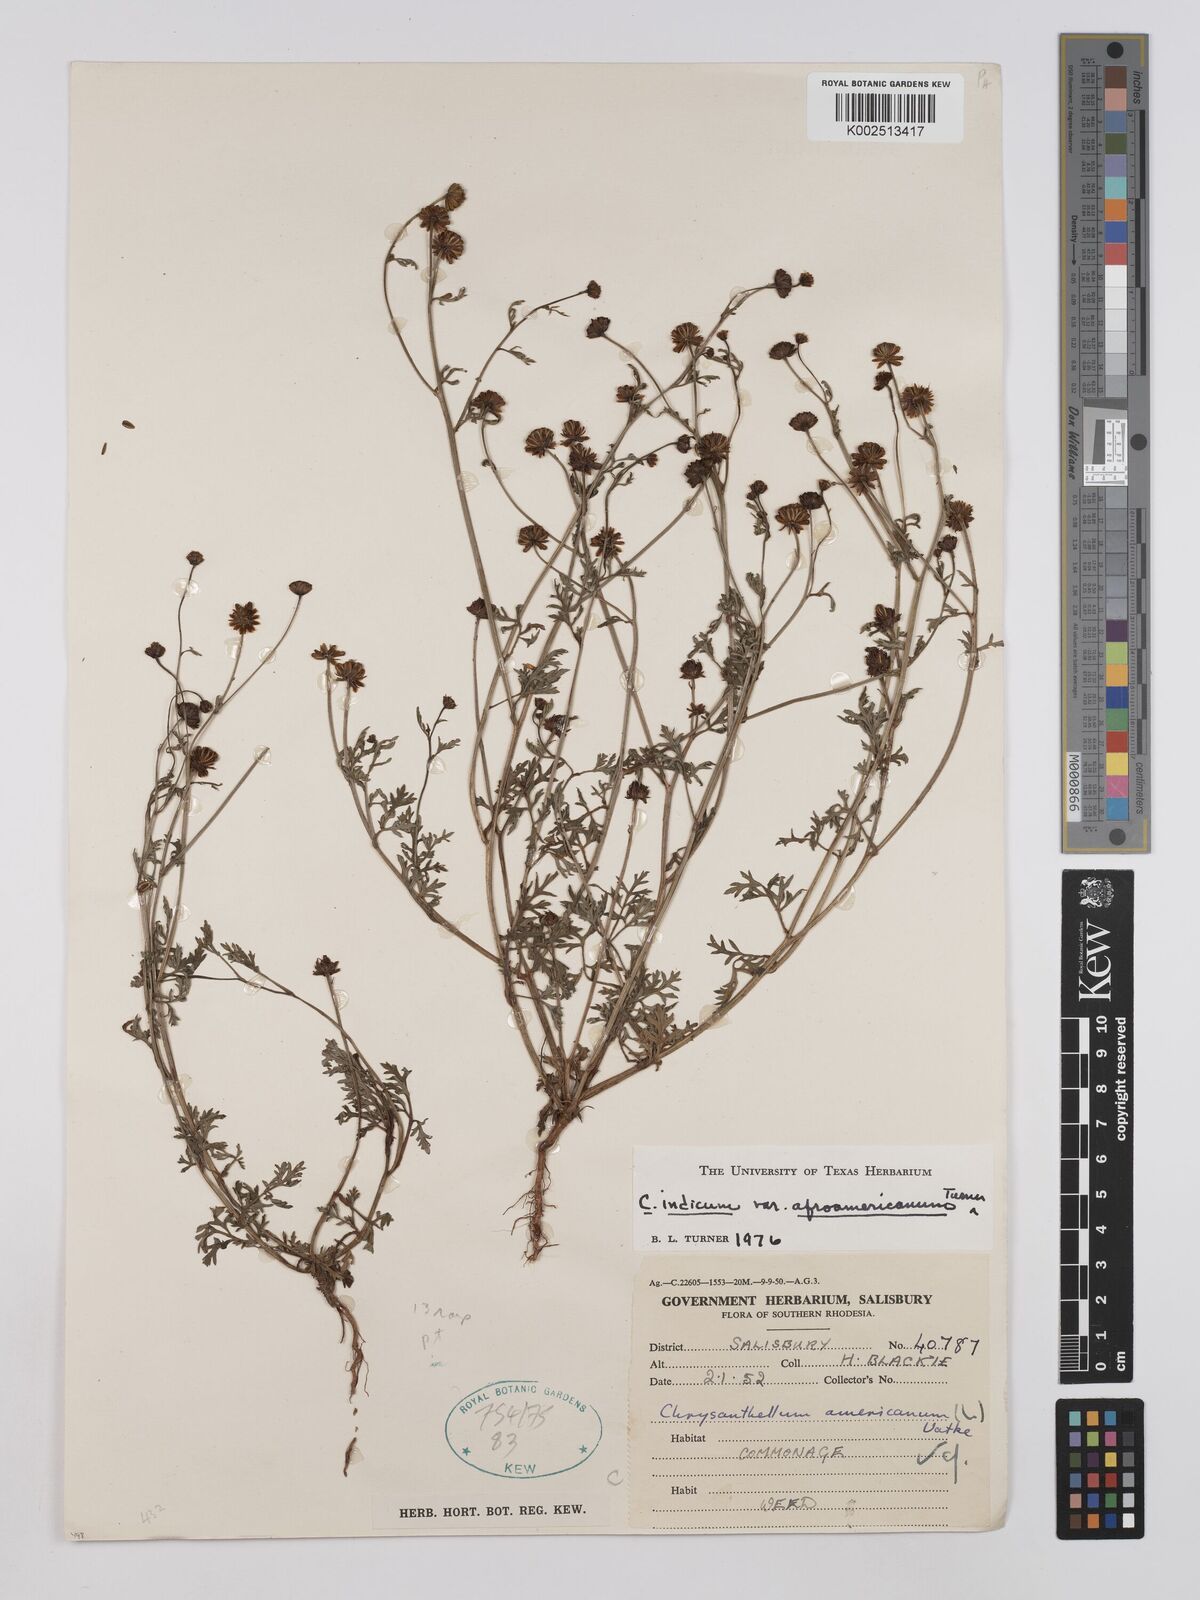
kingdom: Plantae
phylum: Tracheophyta
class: Magnoliopsida
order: Asterales
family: Asteraceae
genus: Chrysanthellum
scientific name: Chrysanthellum indicum
